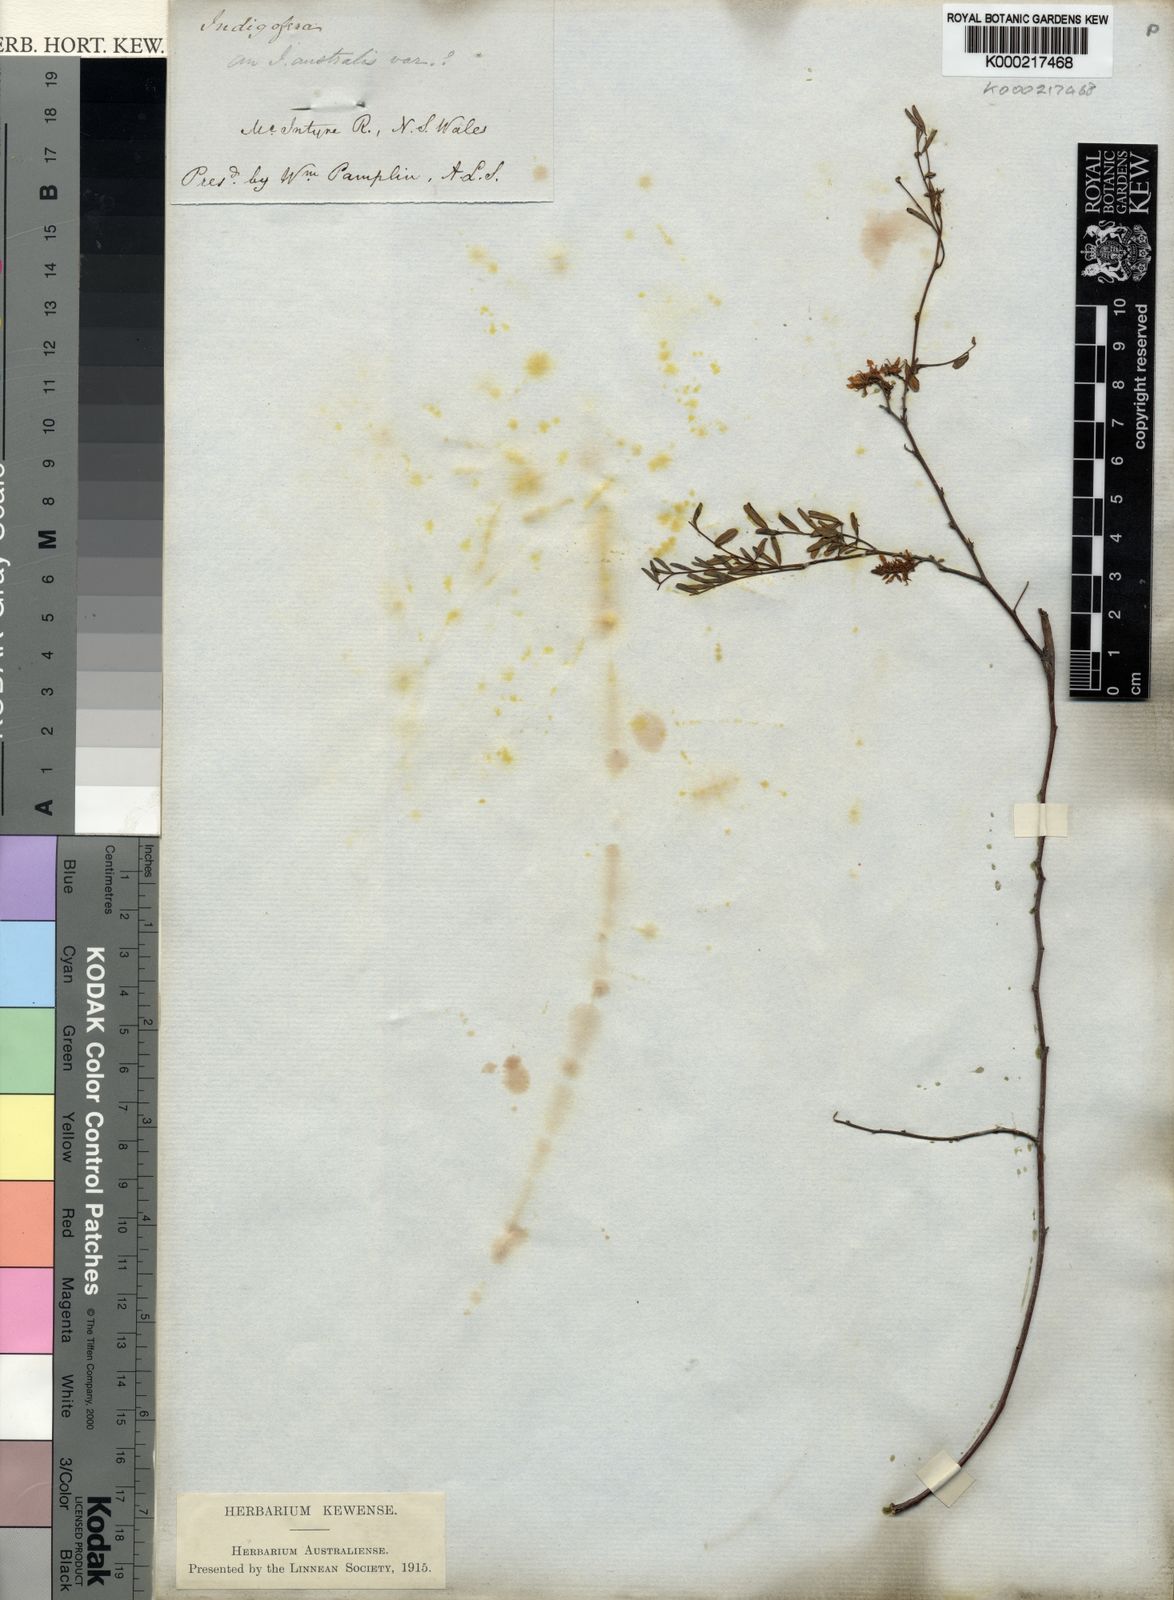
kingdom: Plantae
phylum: Tracheophyta
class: Magnoliopsida
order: Fabales
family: Fabaceae
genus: Indigofera
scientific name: Indigofera australis
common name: Australian indigo
